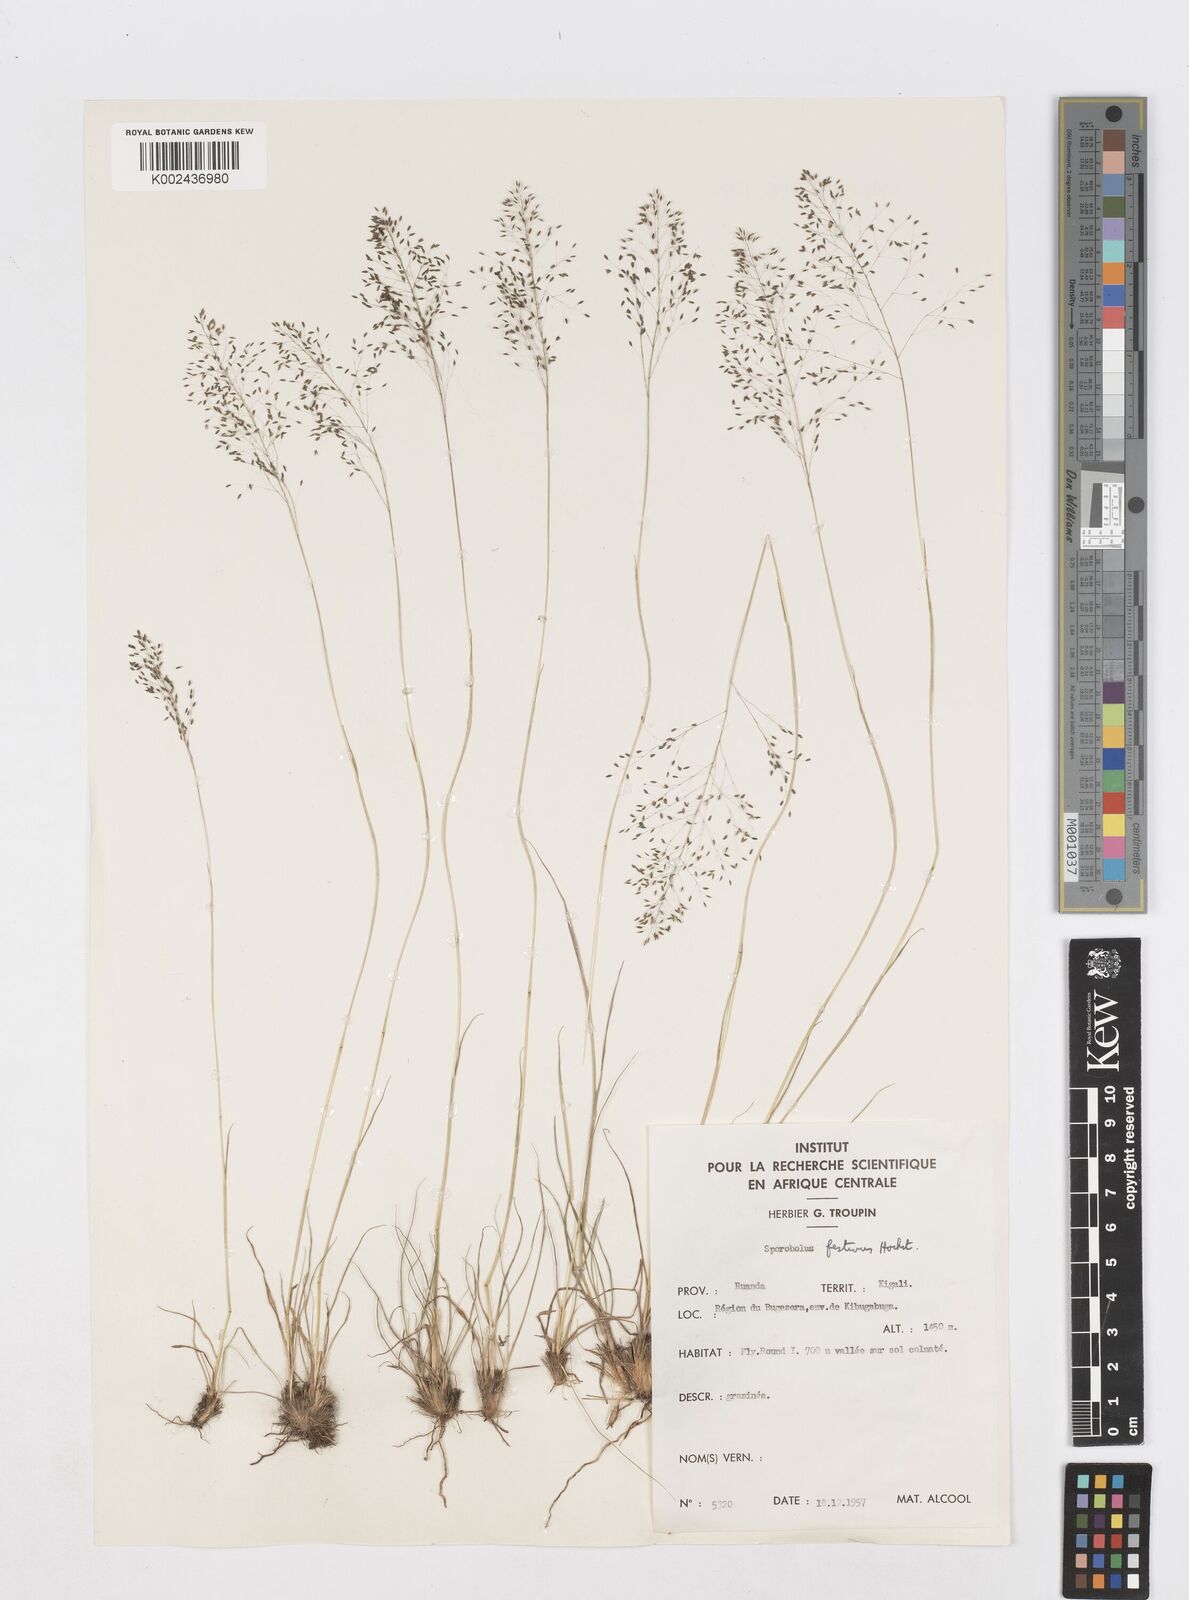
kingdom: Plantae
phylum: Tracheophyta
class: Liliopsida
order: Poales
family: Poaceae
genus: Sporobolus
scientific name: Sporobolus stapfianus
